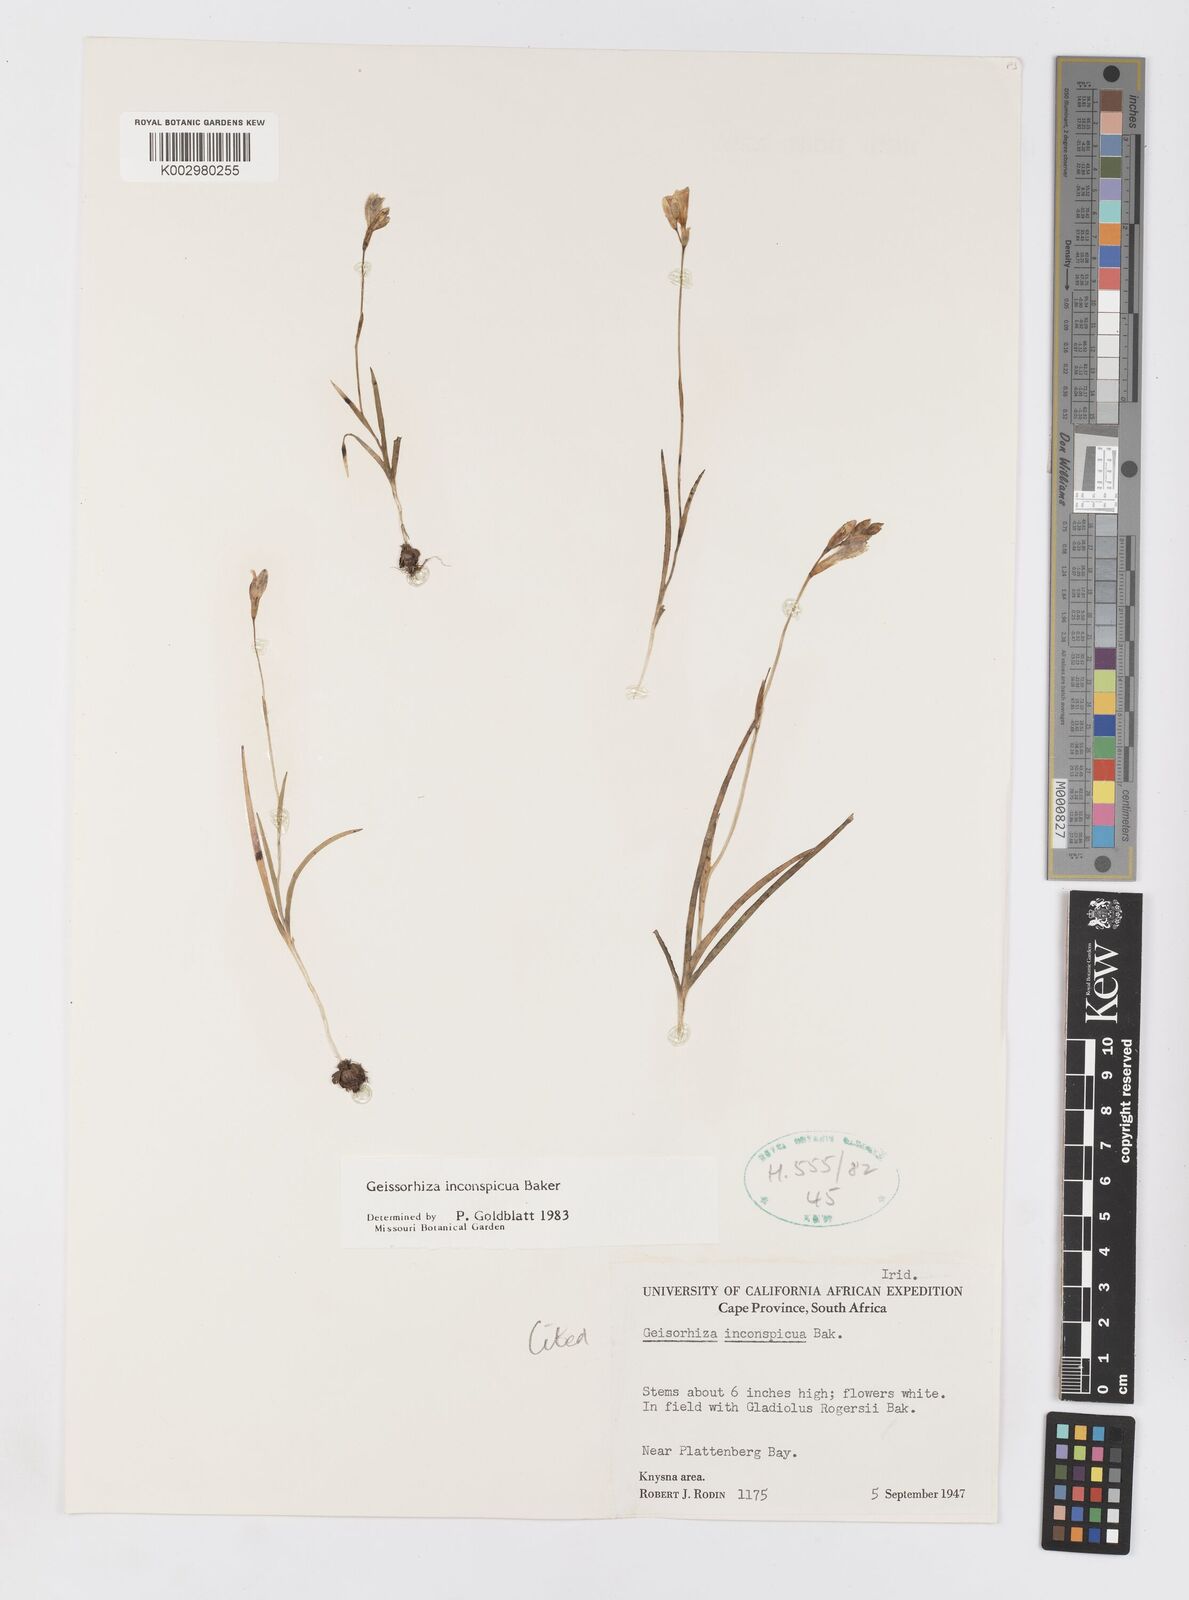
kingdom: Plantae
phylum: Tracheophyta
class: Liliopsida
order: Asparagales
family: Iridaceae
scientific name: Iridaceae
